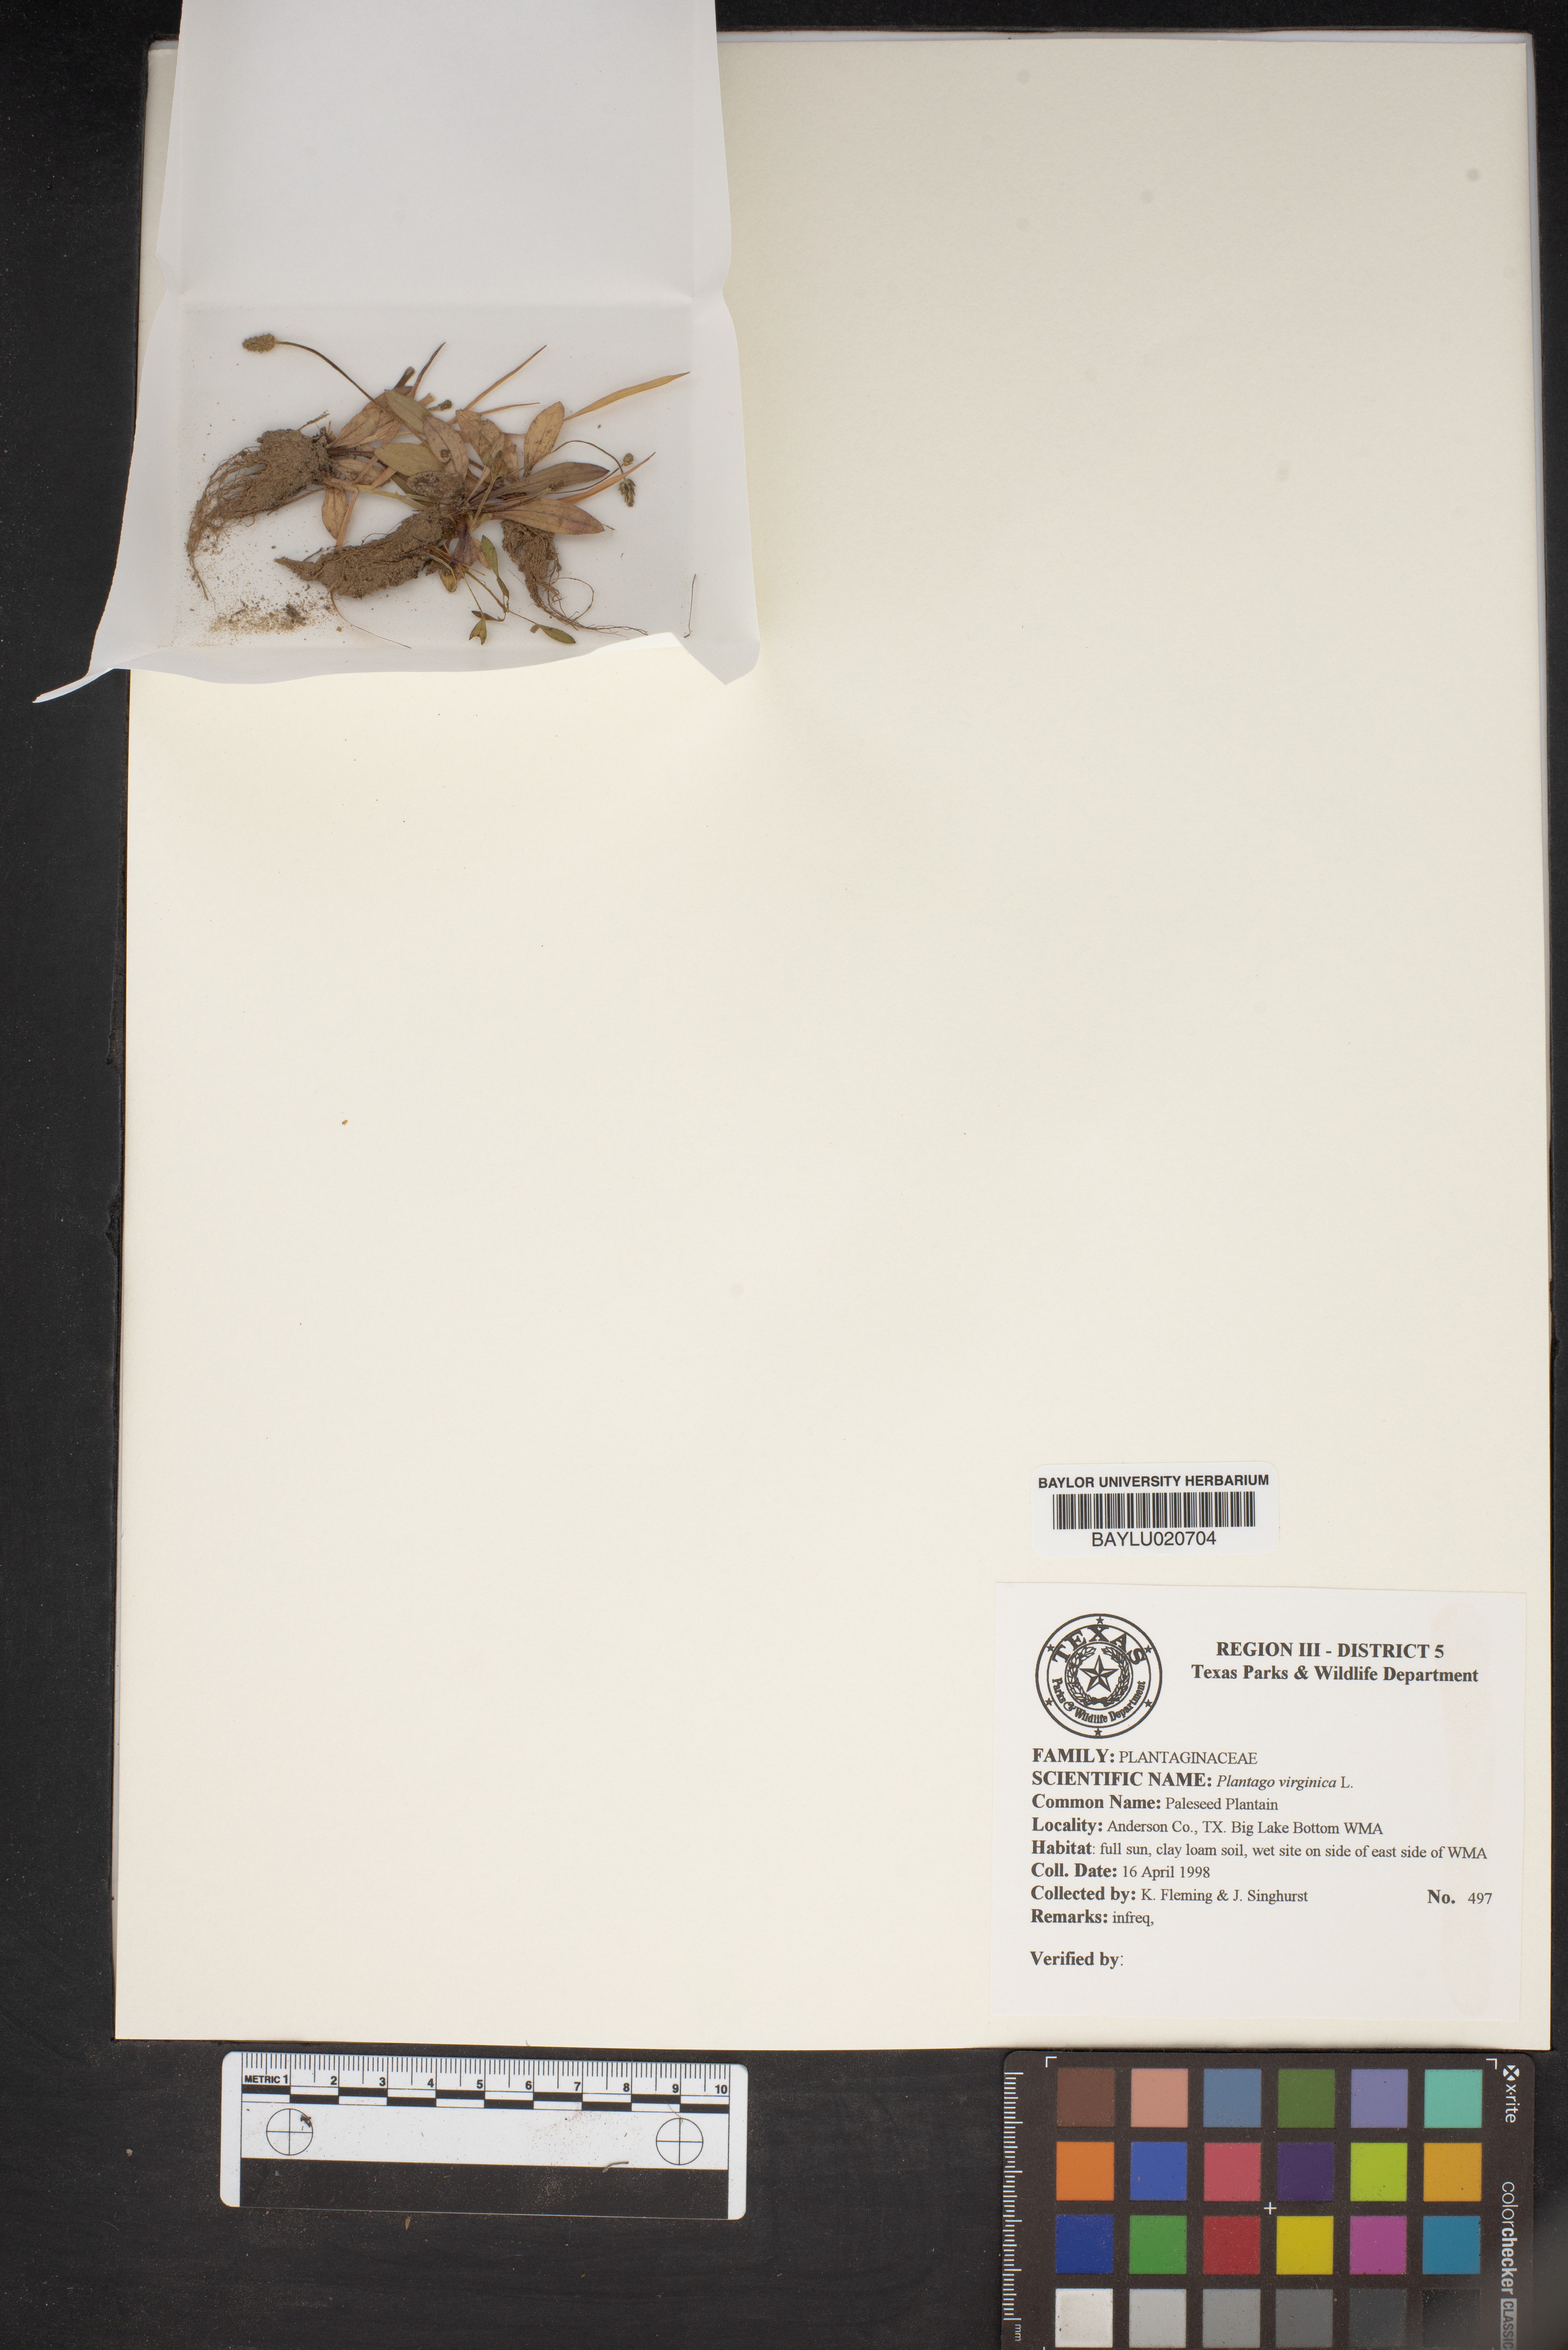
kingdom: Plantae
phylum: Tracheophyta
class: Magnoliopsida
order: Lamiales
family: Plantaginaceae
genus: Plantago
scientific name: Plantago virginica
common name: Hoary plantain
